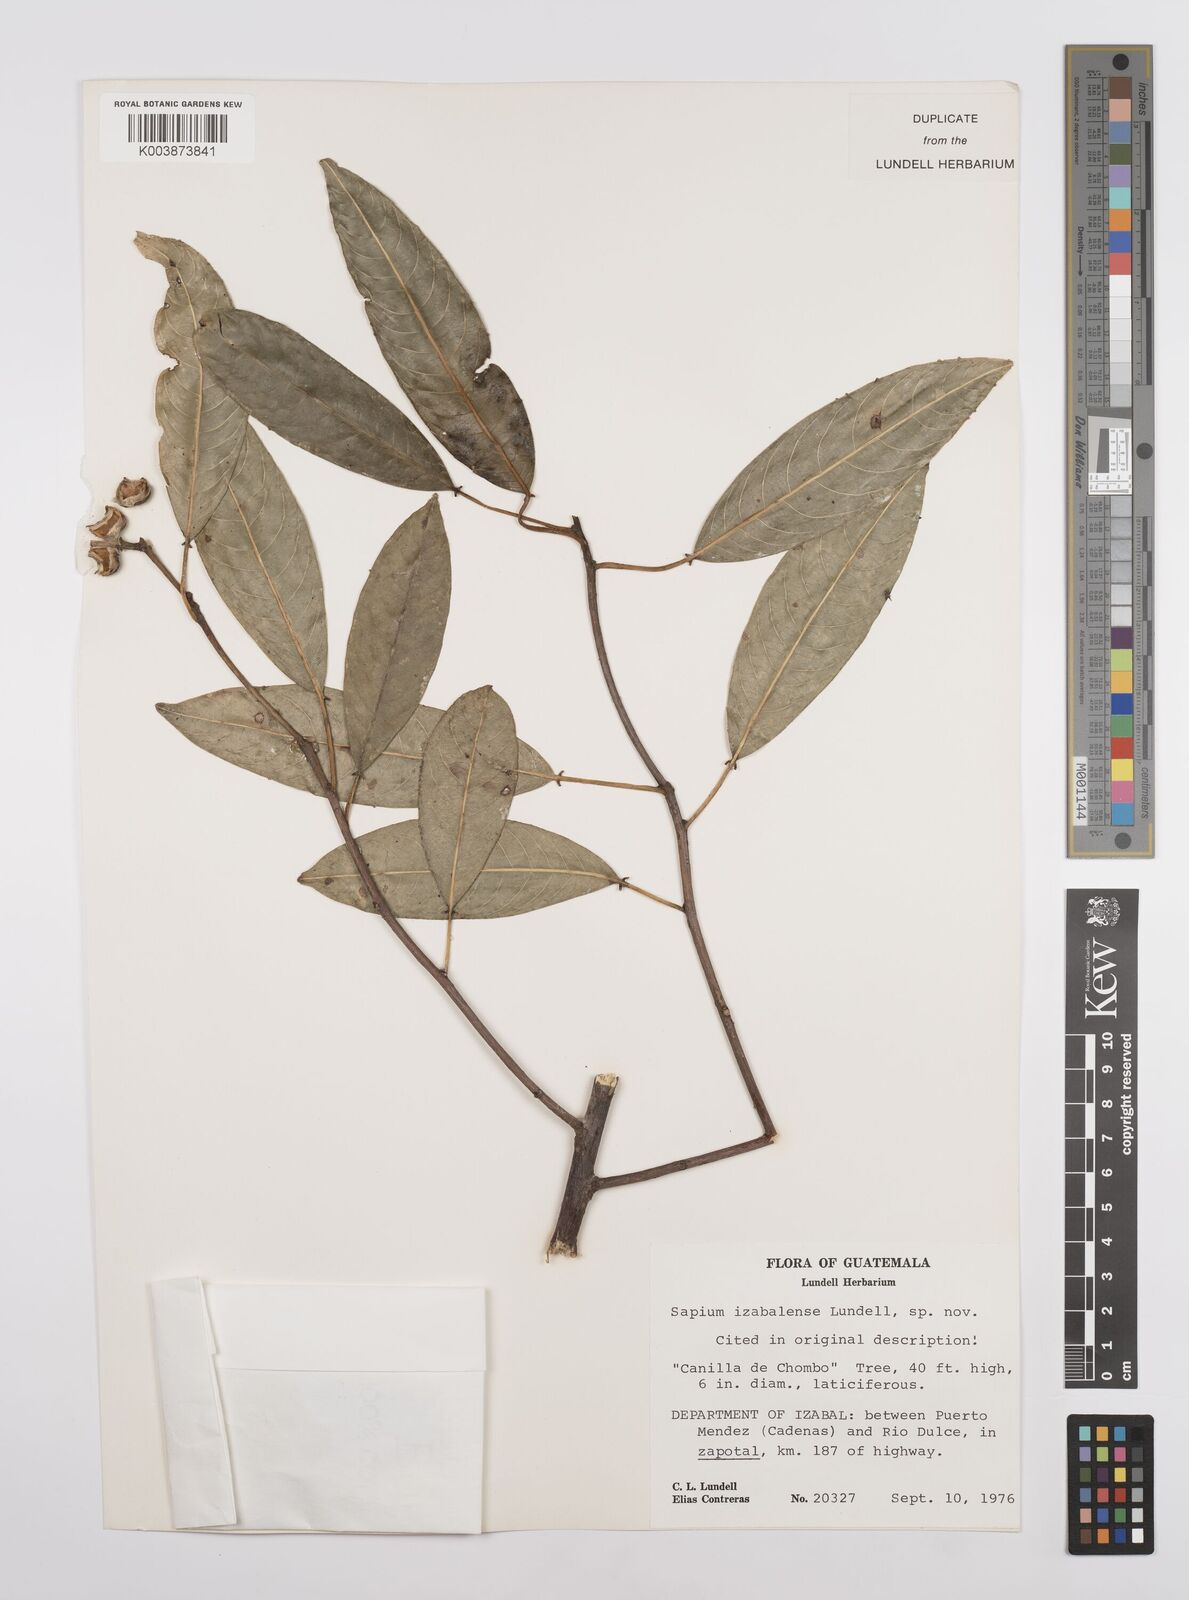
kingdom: Plantae
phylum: Tracheophyta
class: Magnoliopsida
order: Malpighiales
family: Euphorbiaceae
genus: Sapium
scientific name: Sapium glandulosum
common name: Milktree
